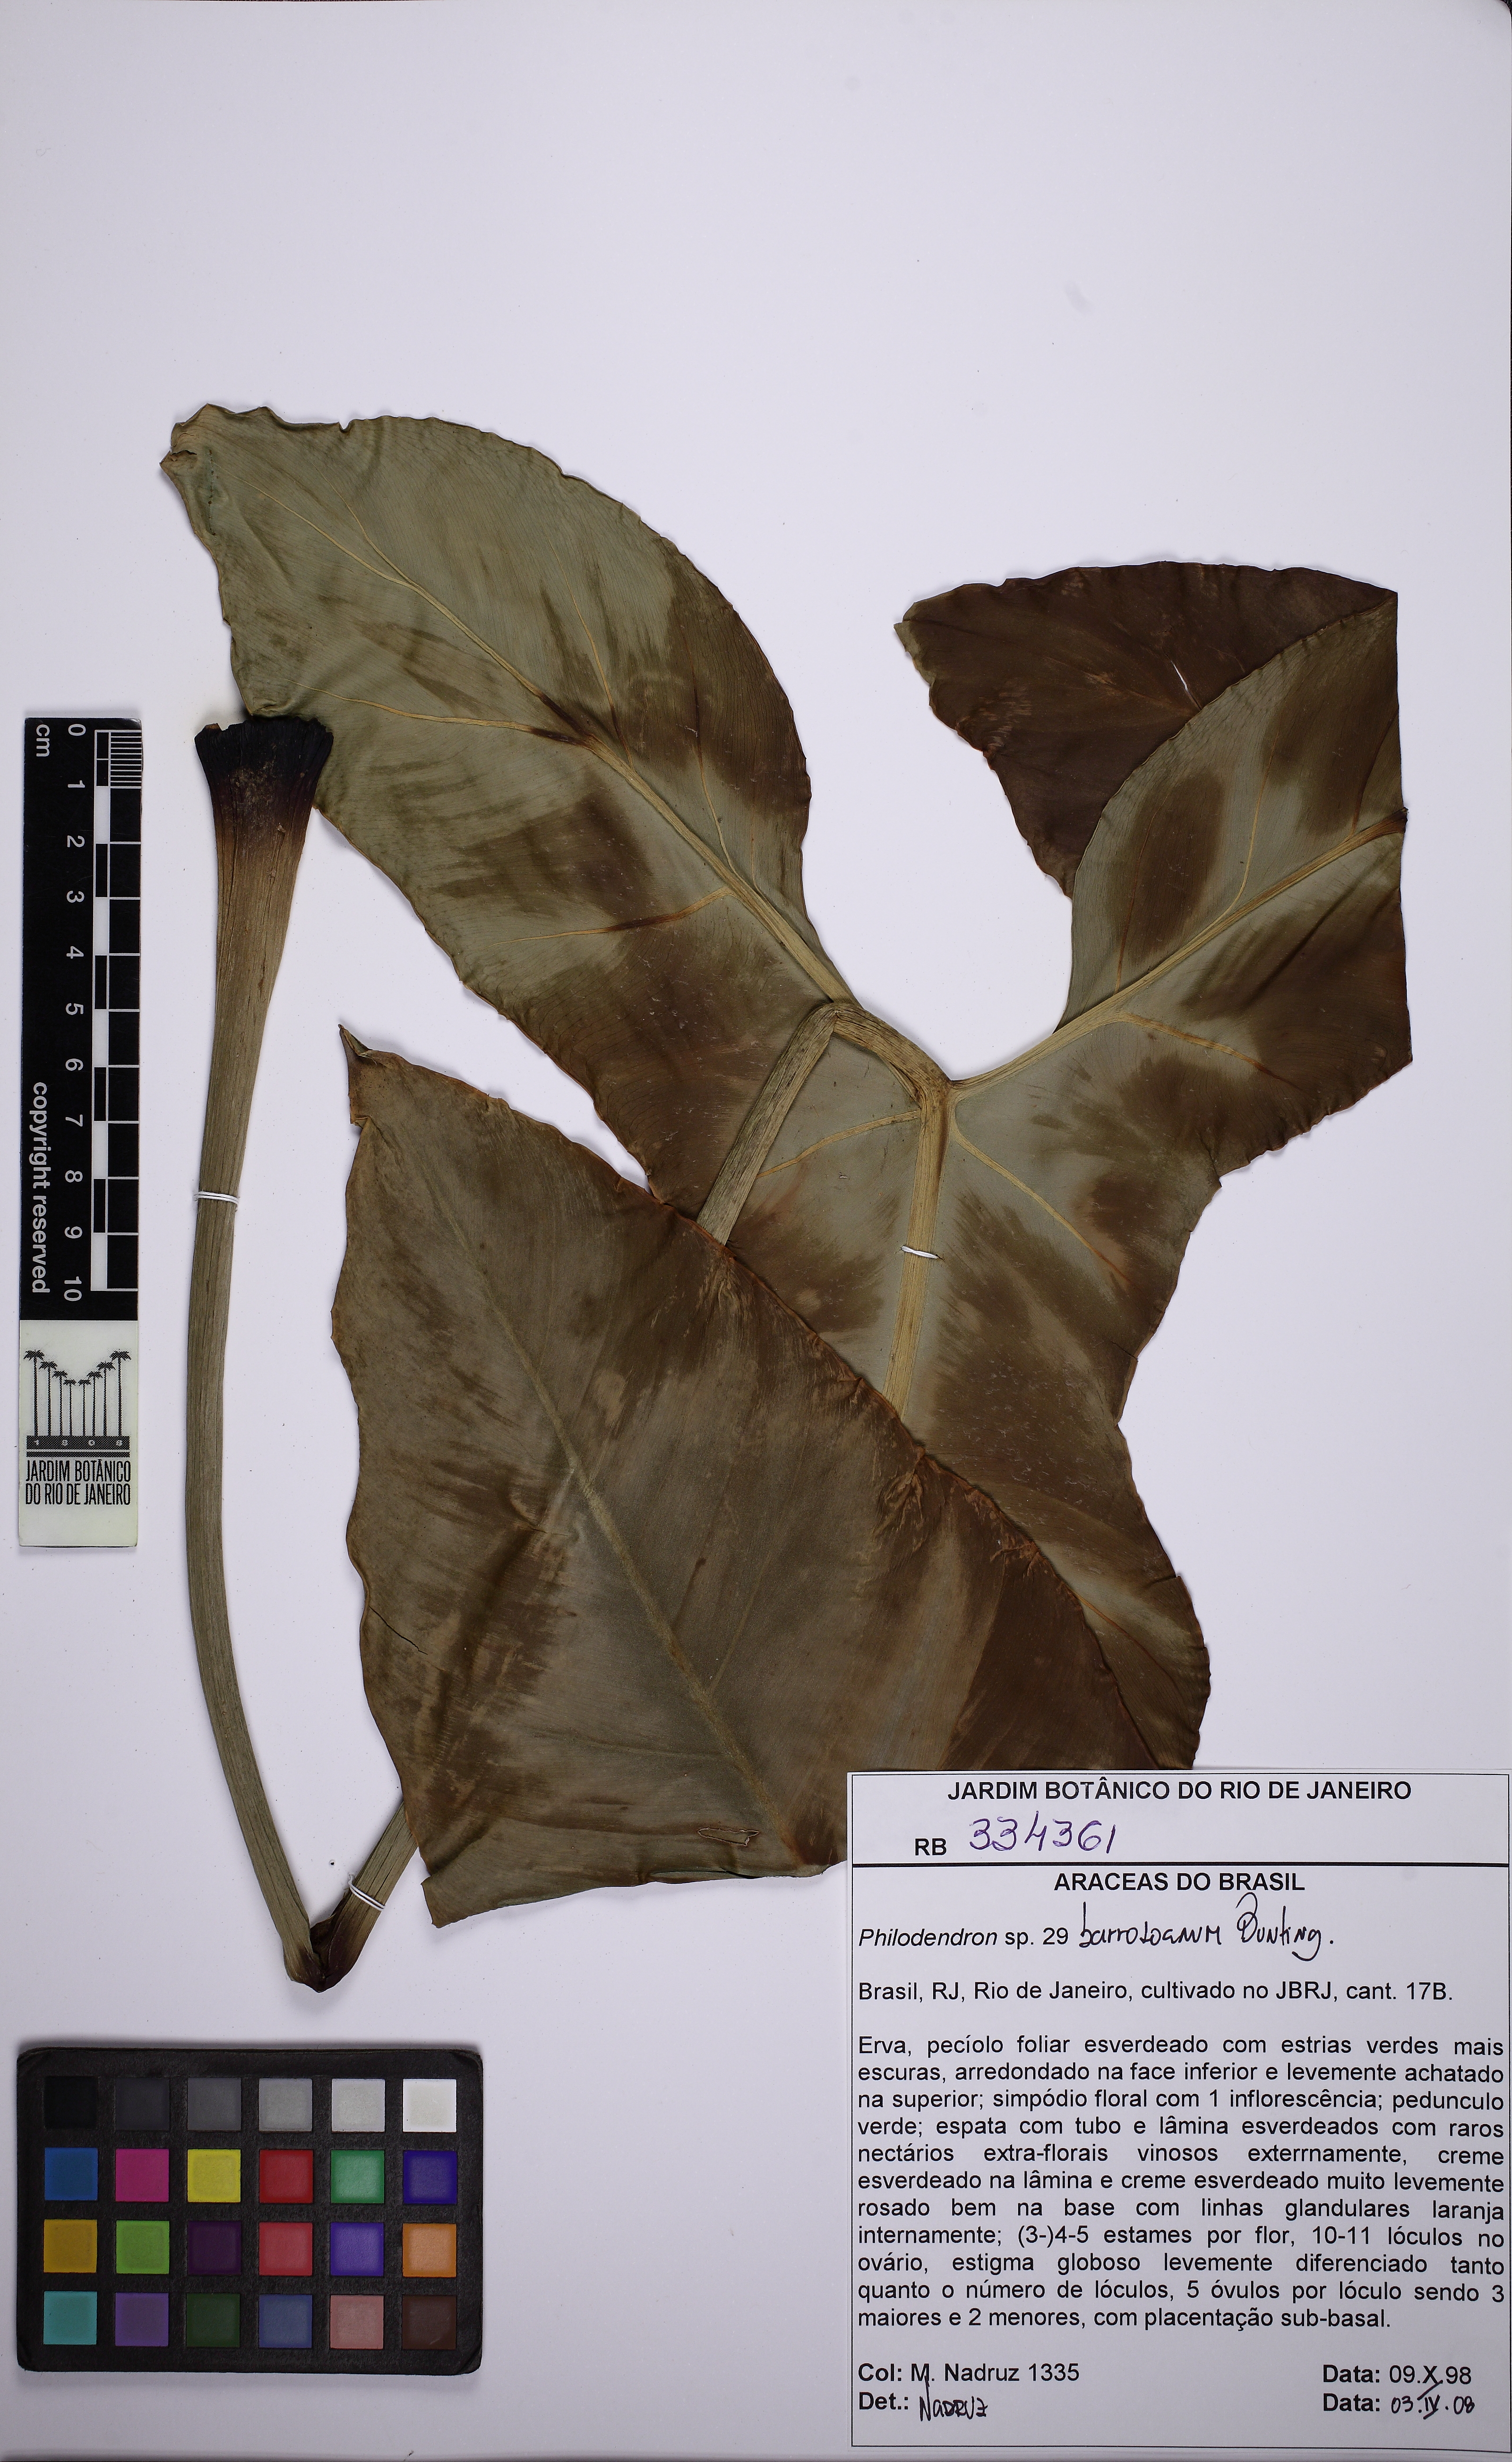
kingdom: Plantae
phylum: Tracheophyta
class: Liliopsida
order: Alismatales
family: Araceae
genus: Philodendron
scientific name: Philodendron barrosoanum
